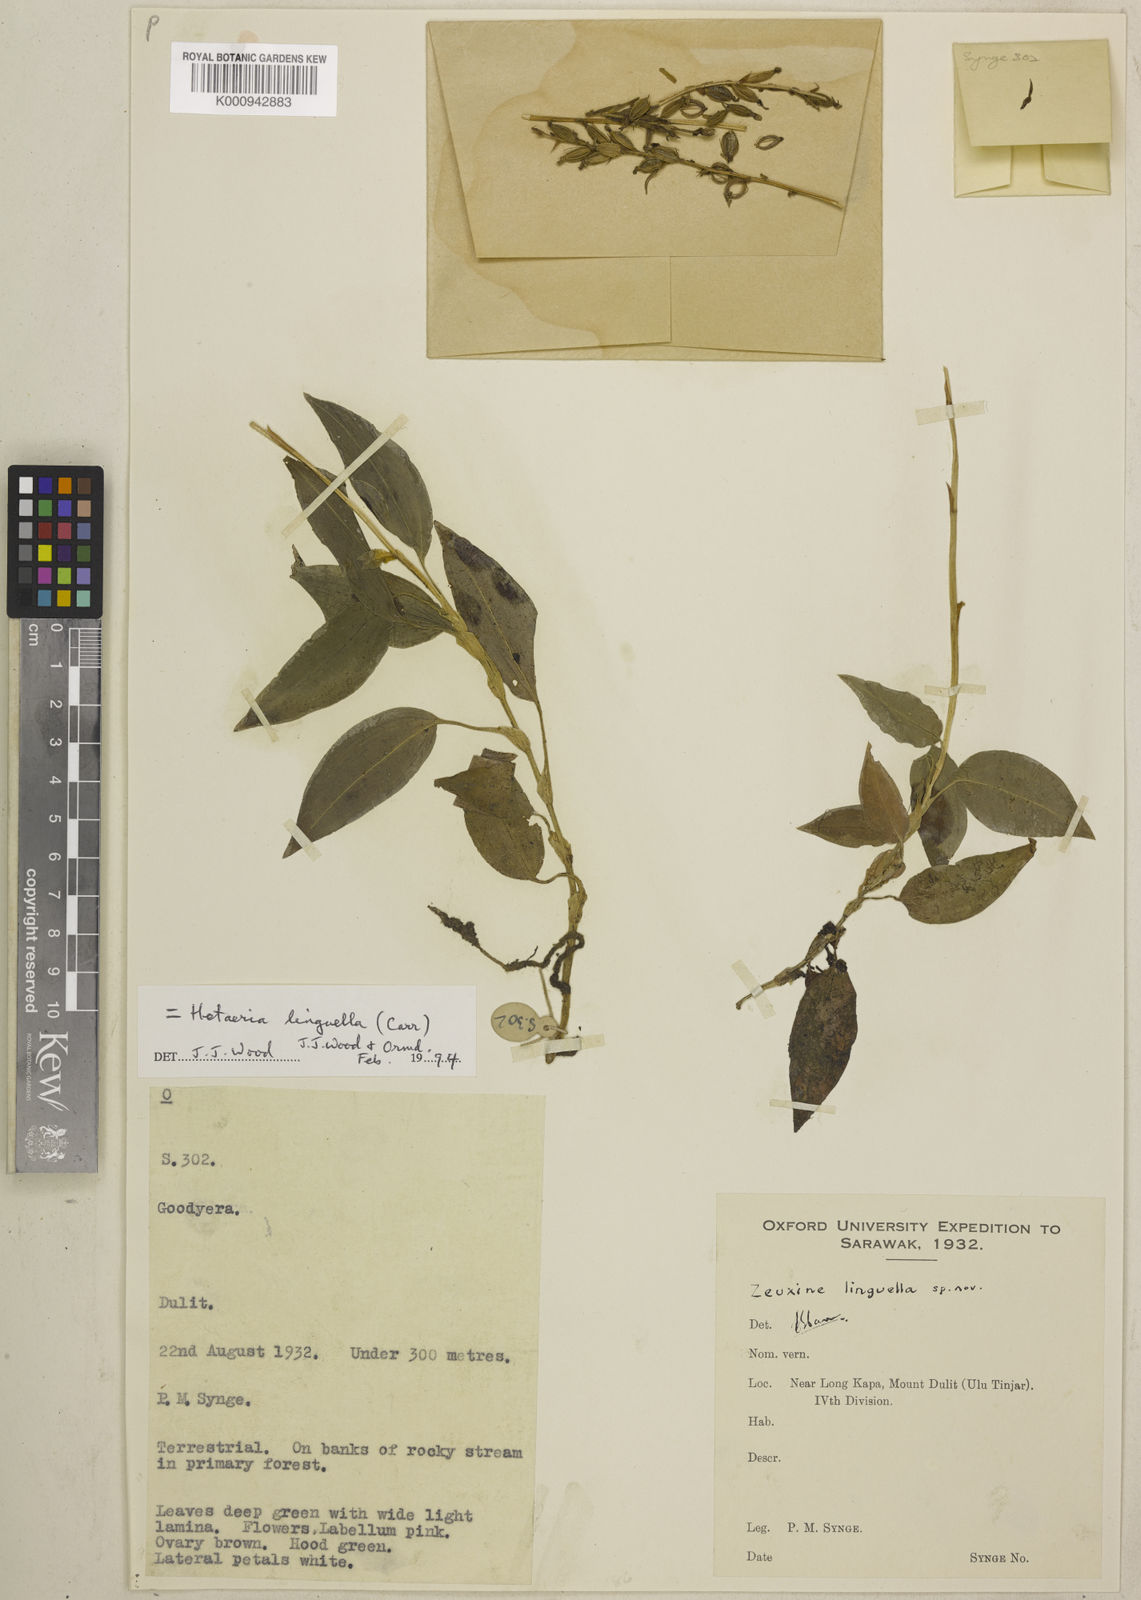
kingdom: Plantae
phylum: Tracheophyta
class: Liliopsida
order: Asparagales
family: Orchidaceae
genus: Hetaeria
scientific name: Hetaeria linguella
